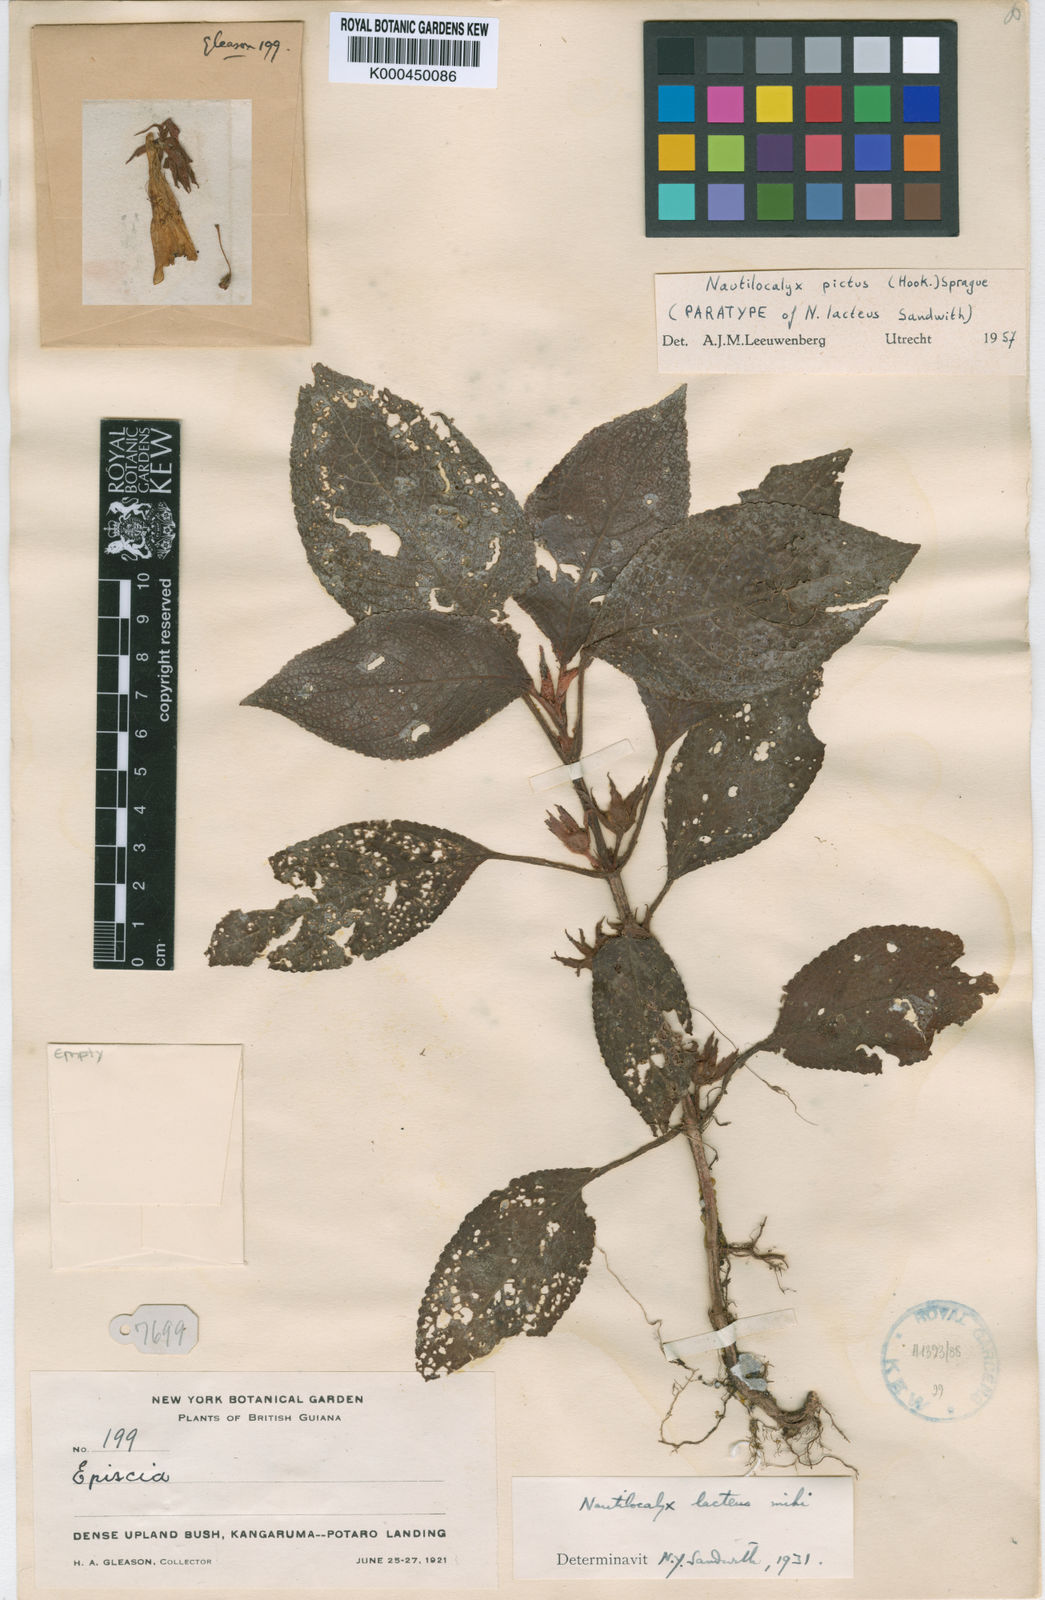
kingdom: Plantae
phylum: Tracheophyta
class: Magnoliopsida
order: Lamiales
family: Gesneriaceae
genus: Centrosolenia
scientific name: Centrosolenia picta
